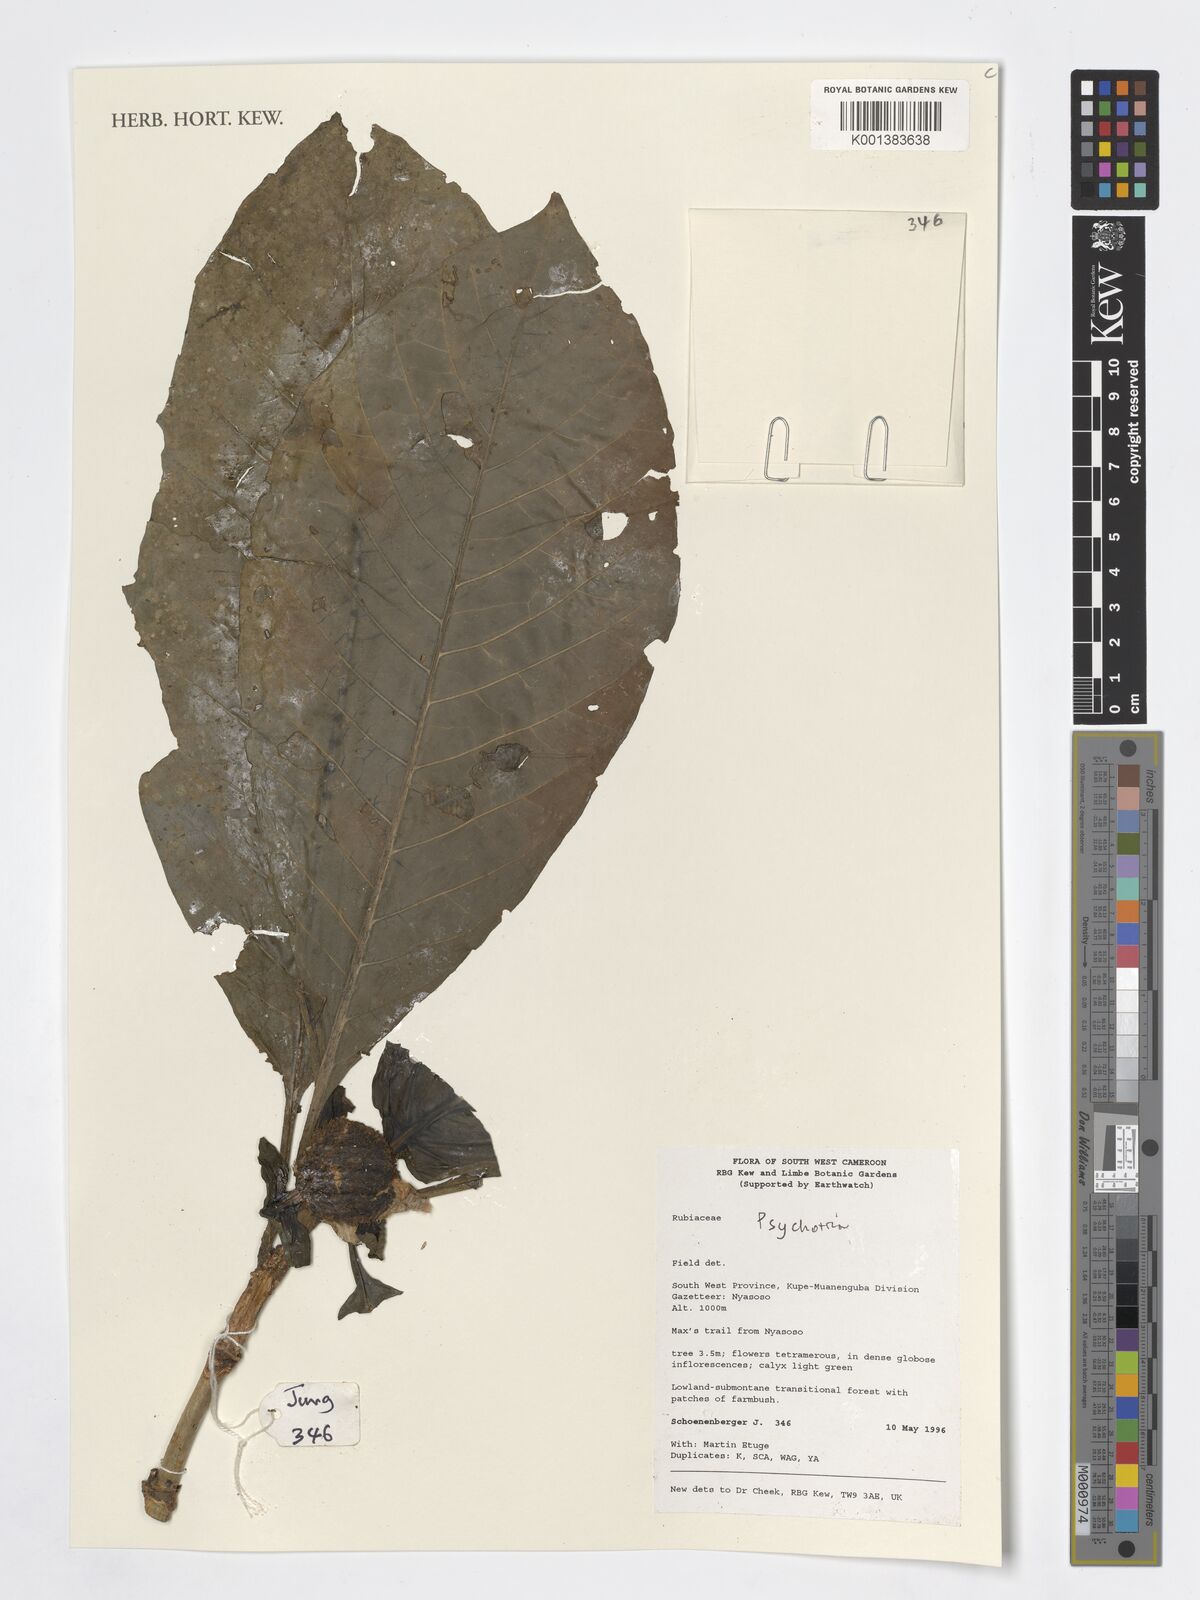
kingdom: Plantae
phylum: Tracheophyta
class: Magnoliopsida
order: Gentianales
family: Rubiaceae
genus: Psychotria
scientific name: Psychotria
